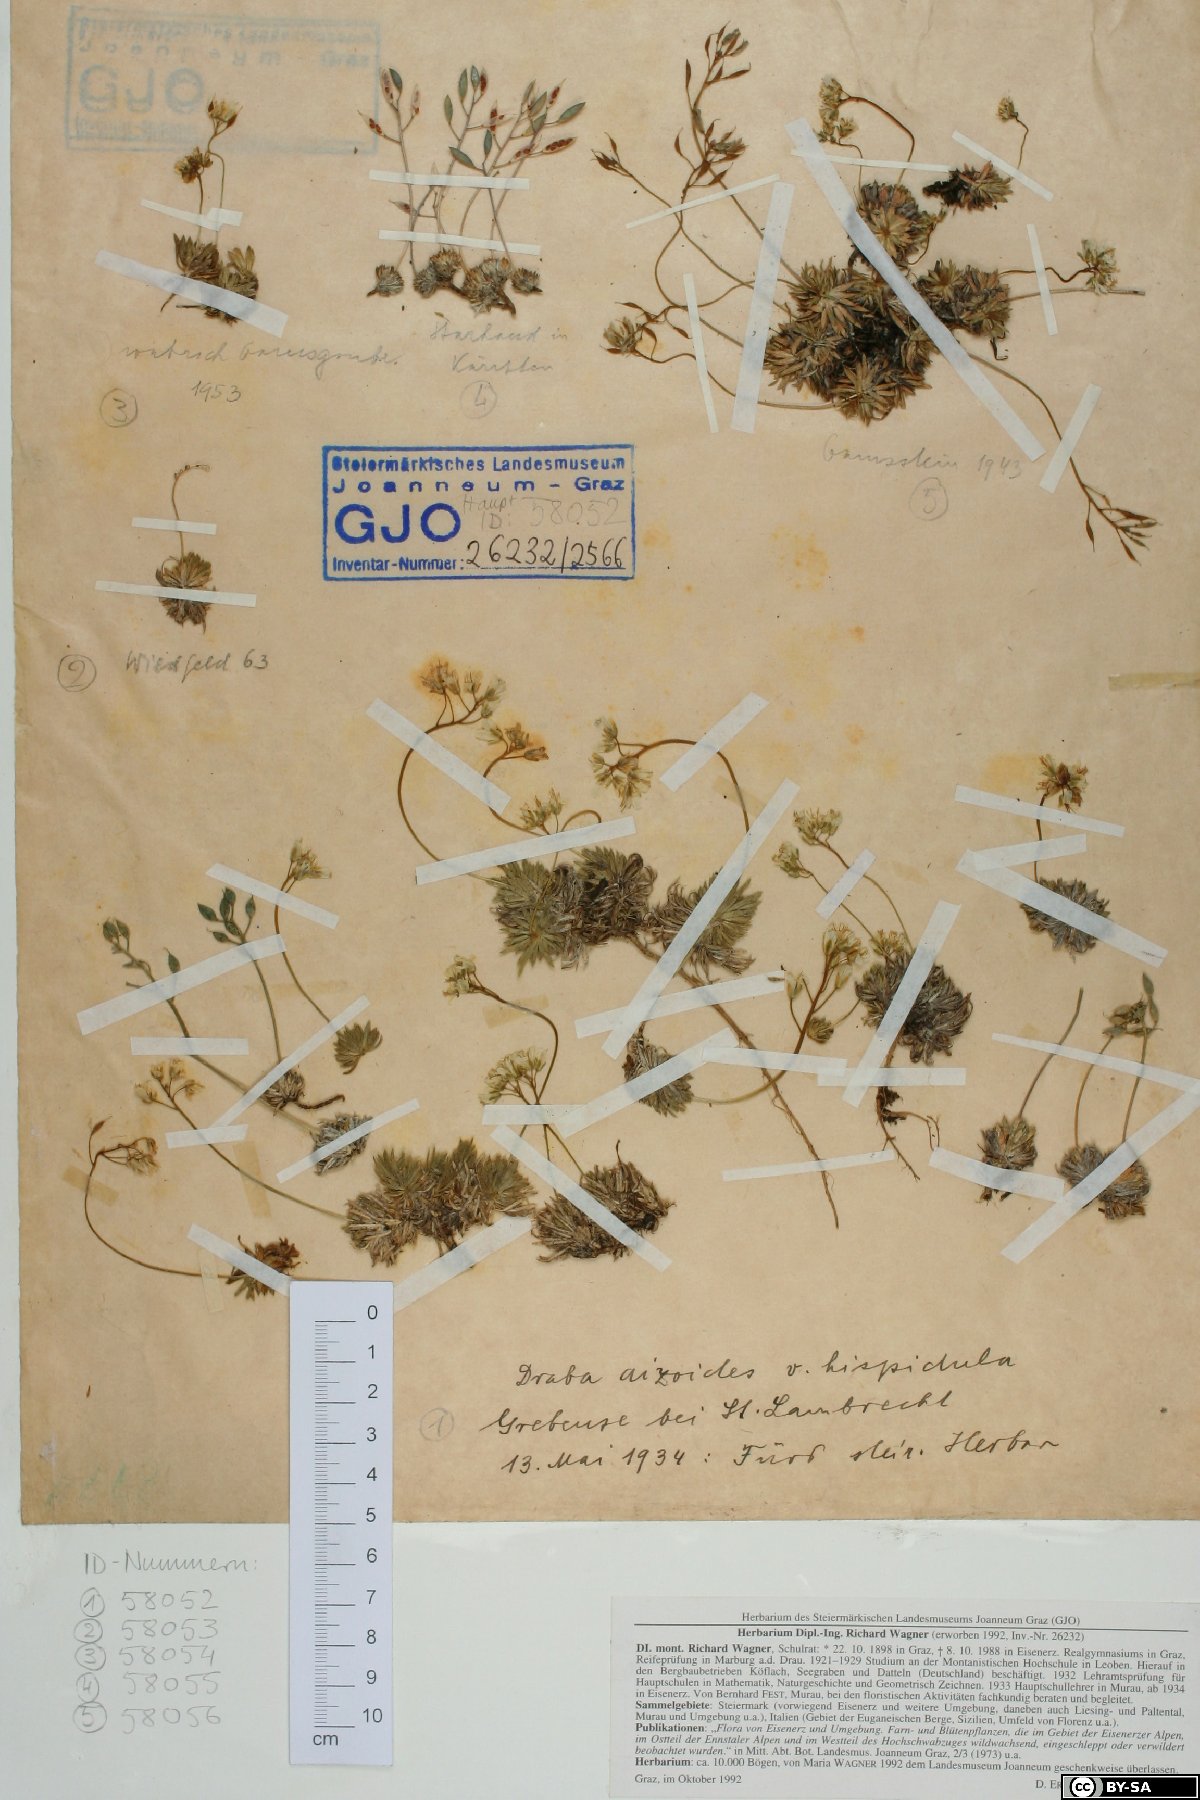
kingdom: Plantae
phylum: Tracheophyta
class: Magnoliopsida
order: Brassicales
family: Brassicaceae
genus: Draba
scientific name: Draba aizoides
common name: Yellow whitlowgrass
